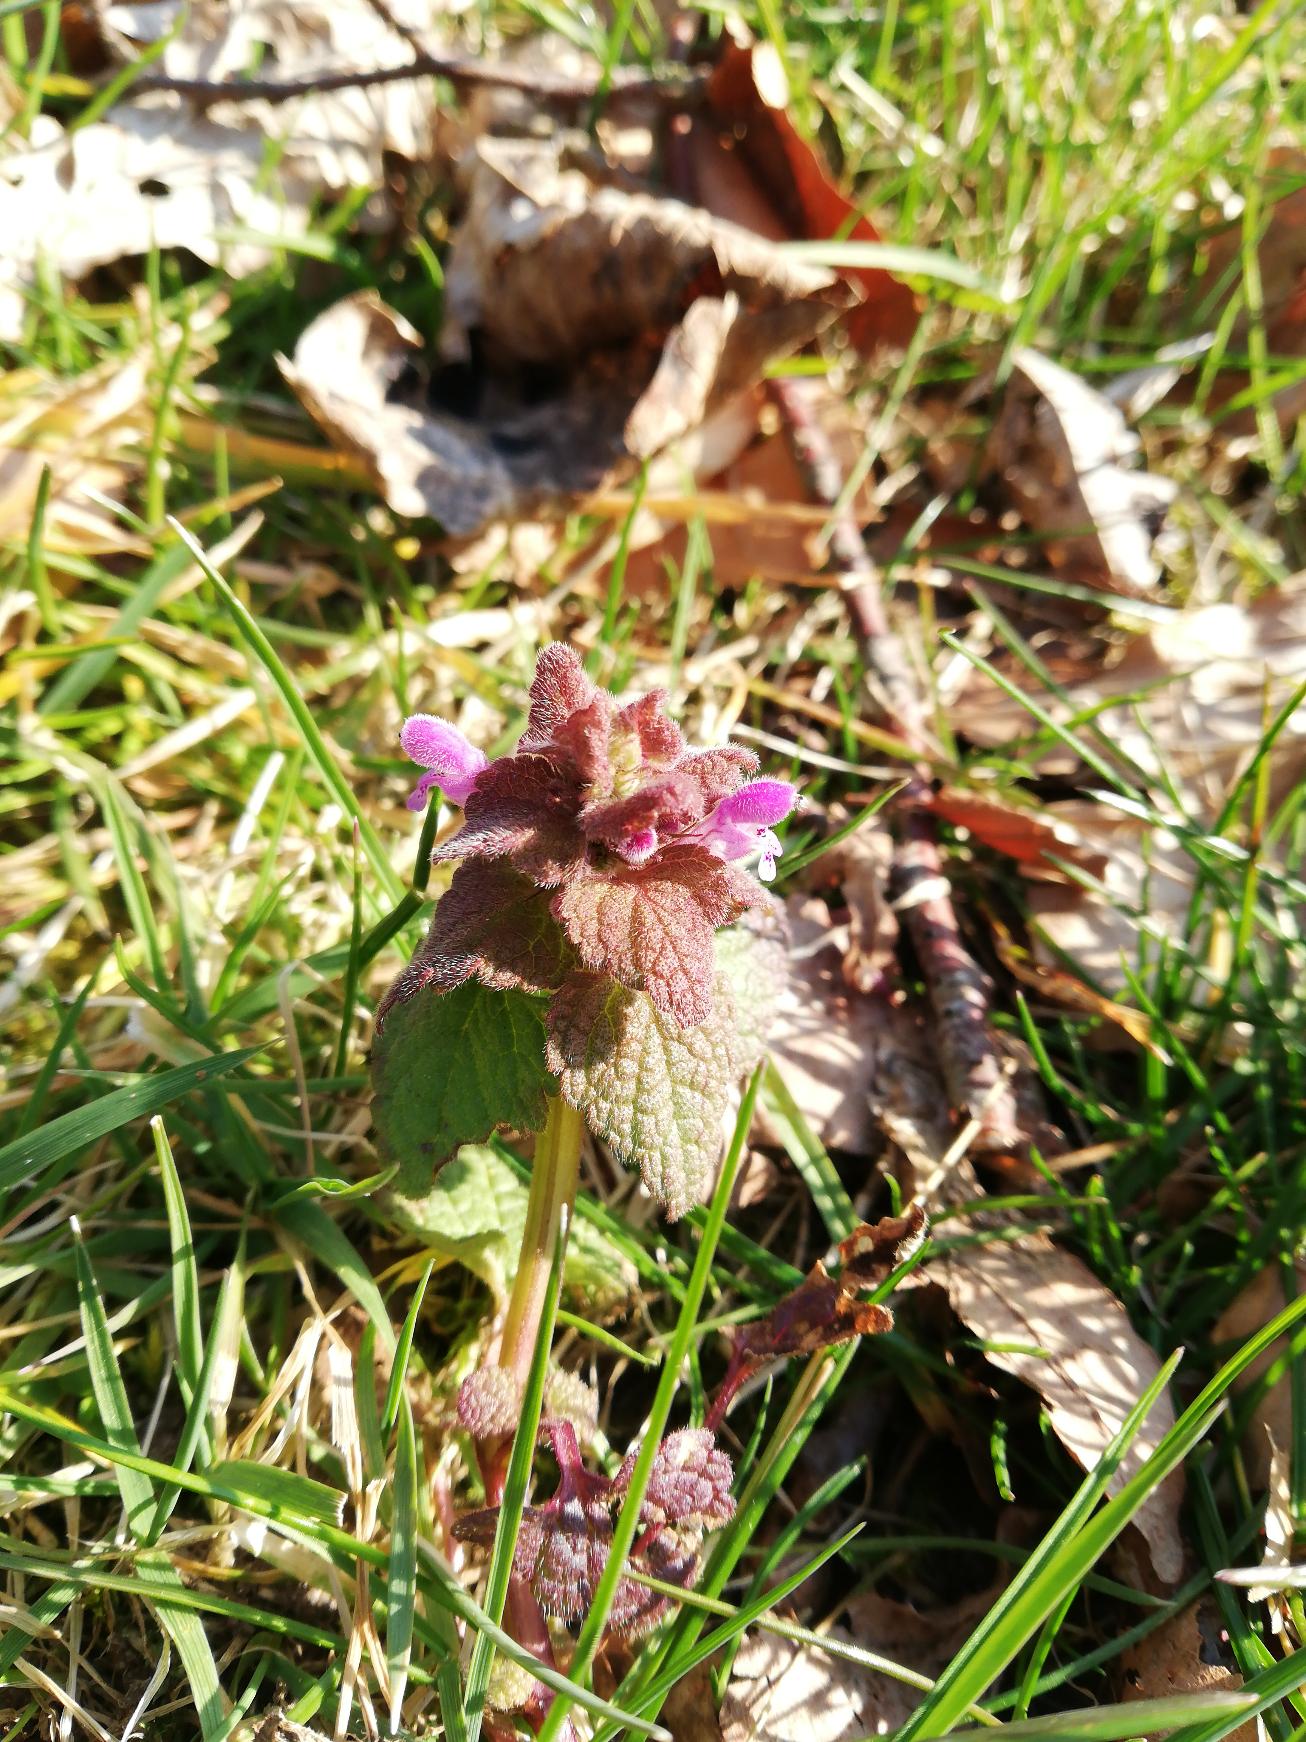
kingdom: Plantae
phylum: Tracheophyta
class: Magnoliopsida
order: Lamiales
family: Lamiaceae
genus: Lamium
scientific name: Lamium purpureum
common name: Rød tvetand
